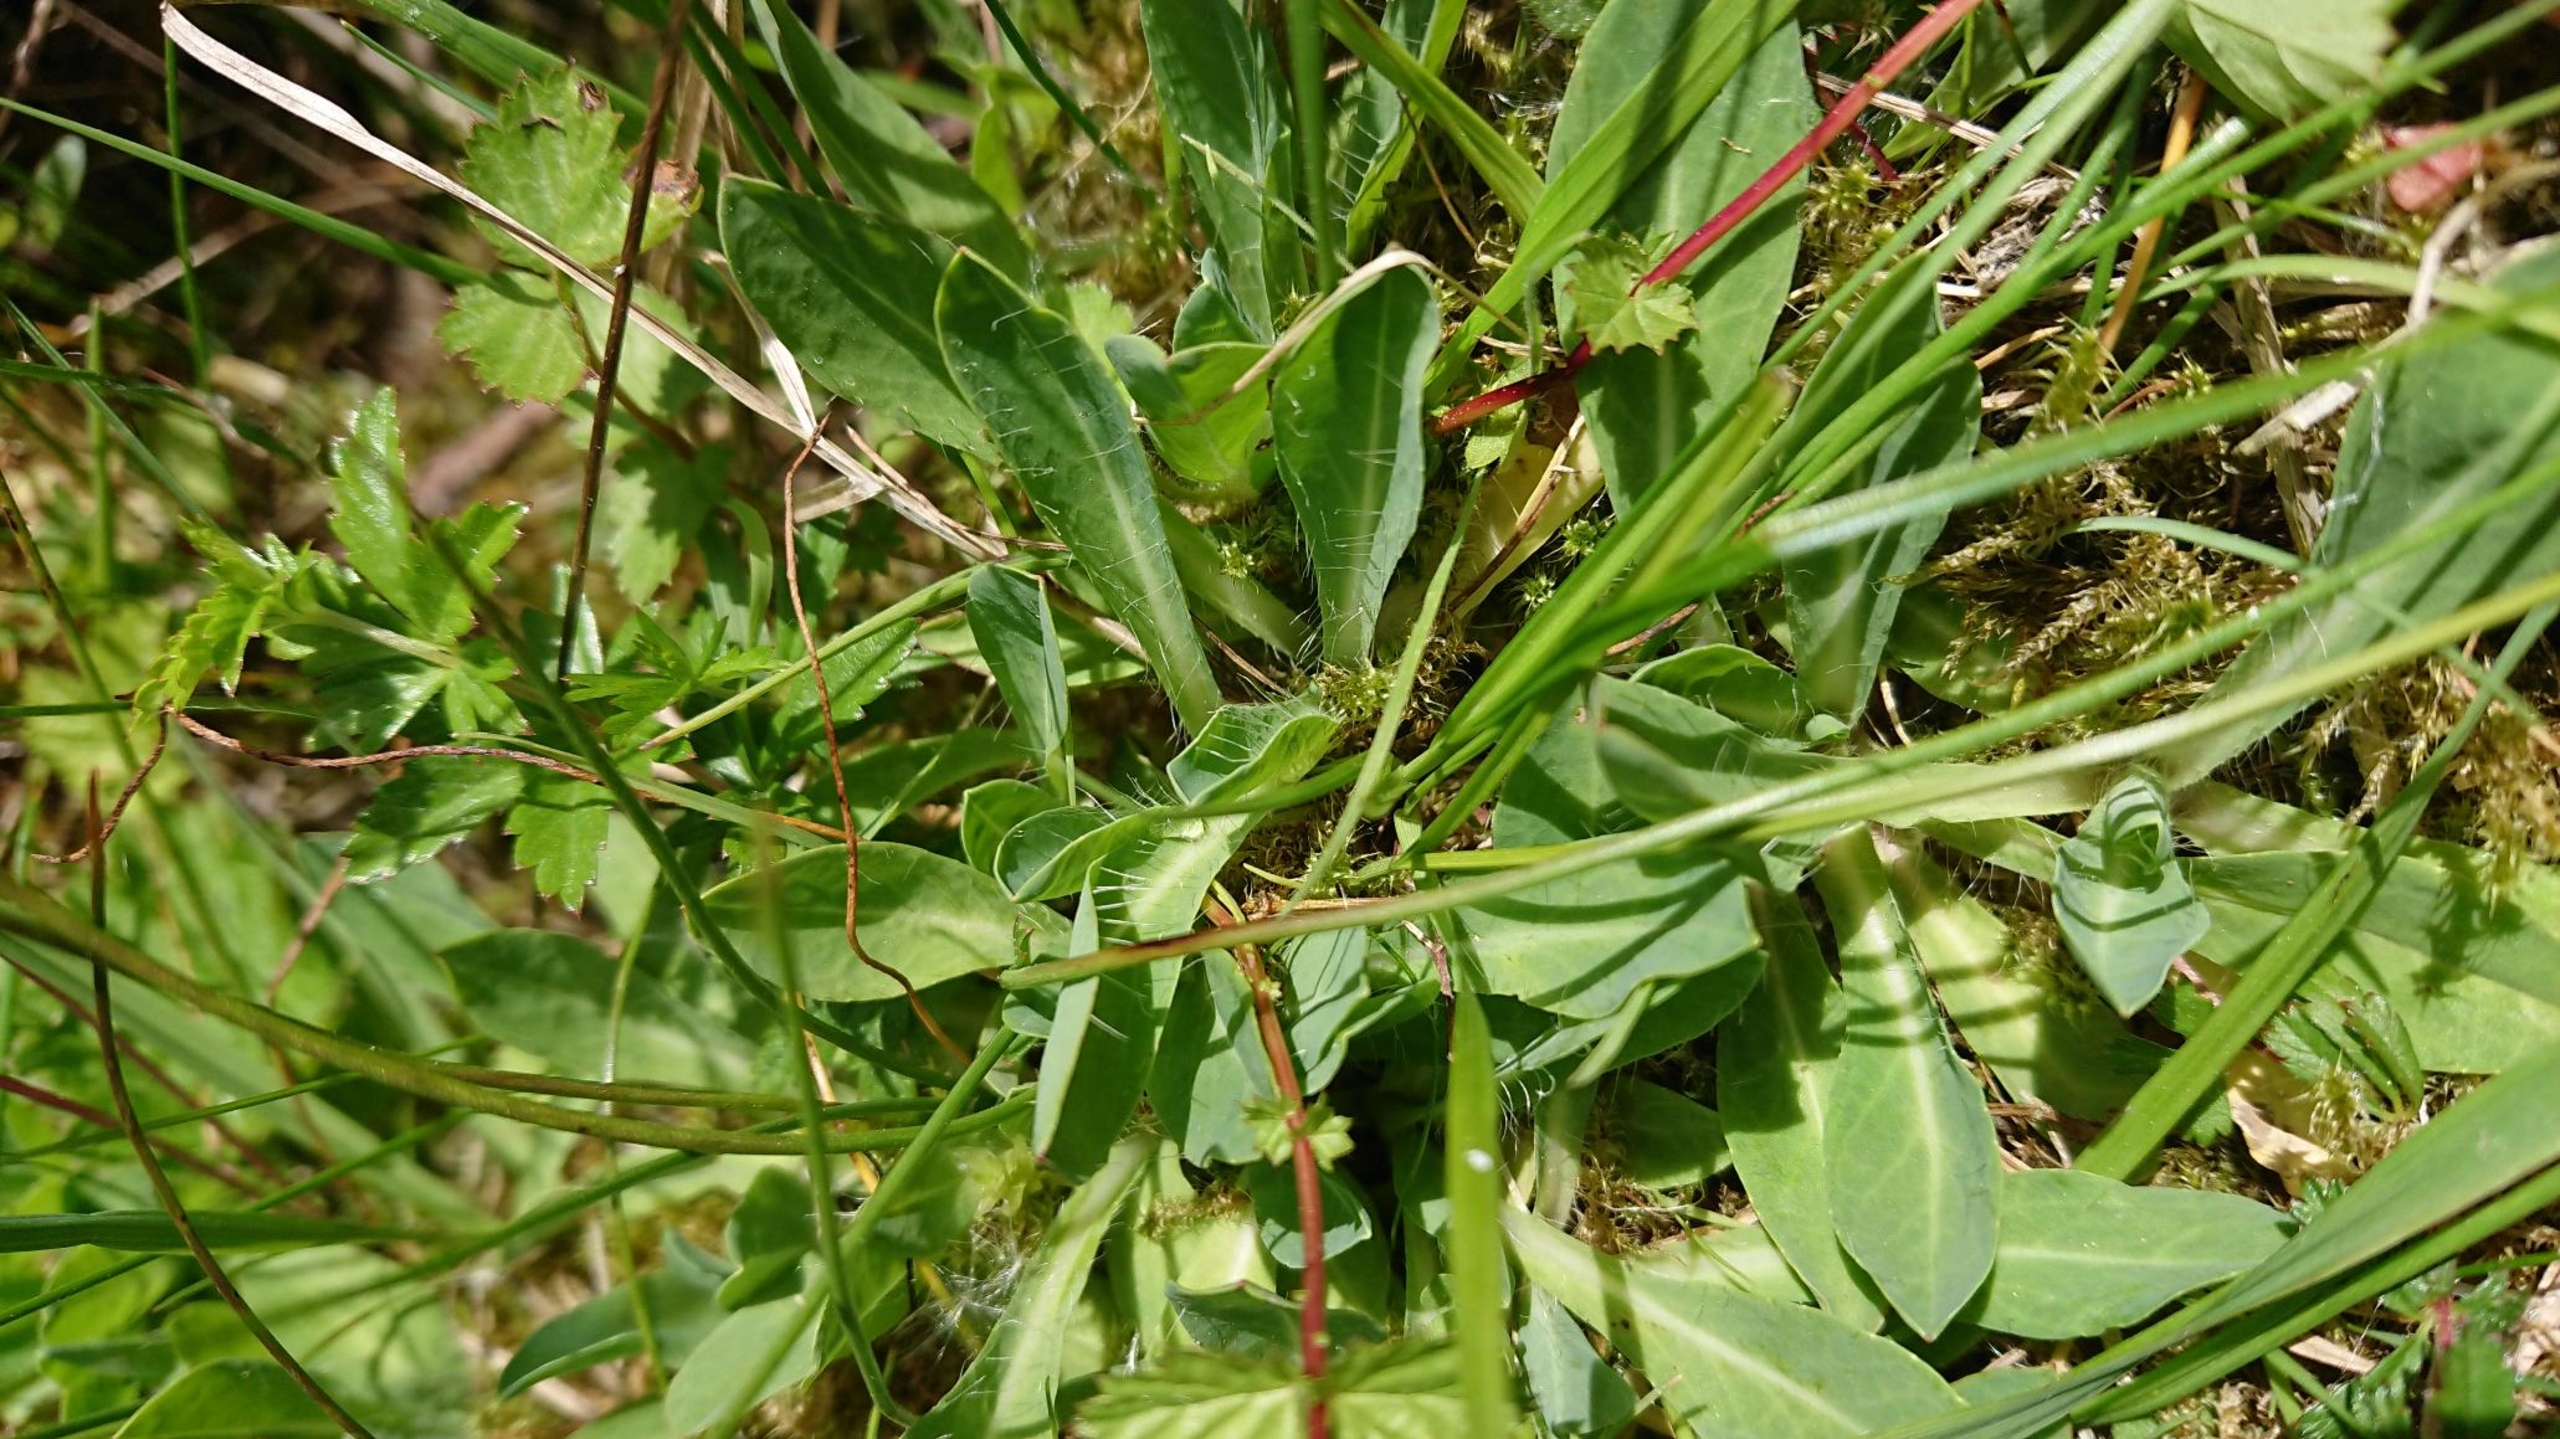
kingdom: Plantae
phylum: Tracheophyta
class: Magnoliopsida
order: Asterales
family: Asteraceae
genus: Pilosella
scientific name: Pilosella lactucella
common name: Lancetbladet høgeurt
